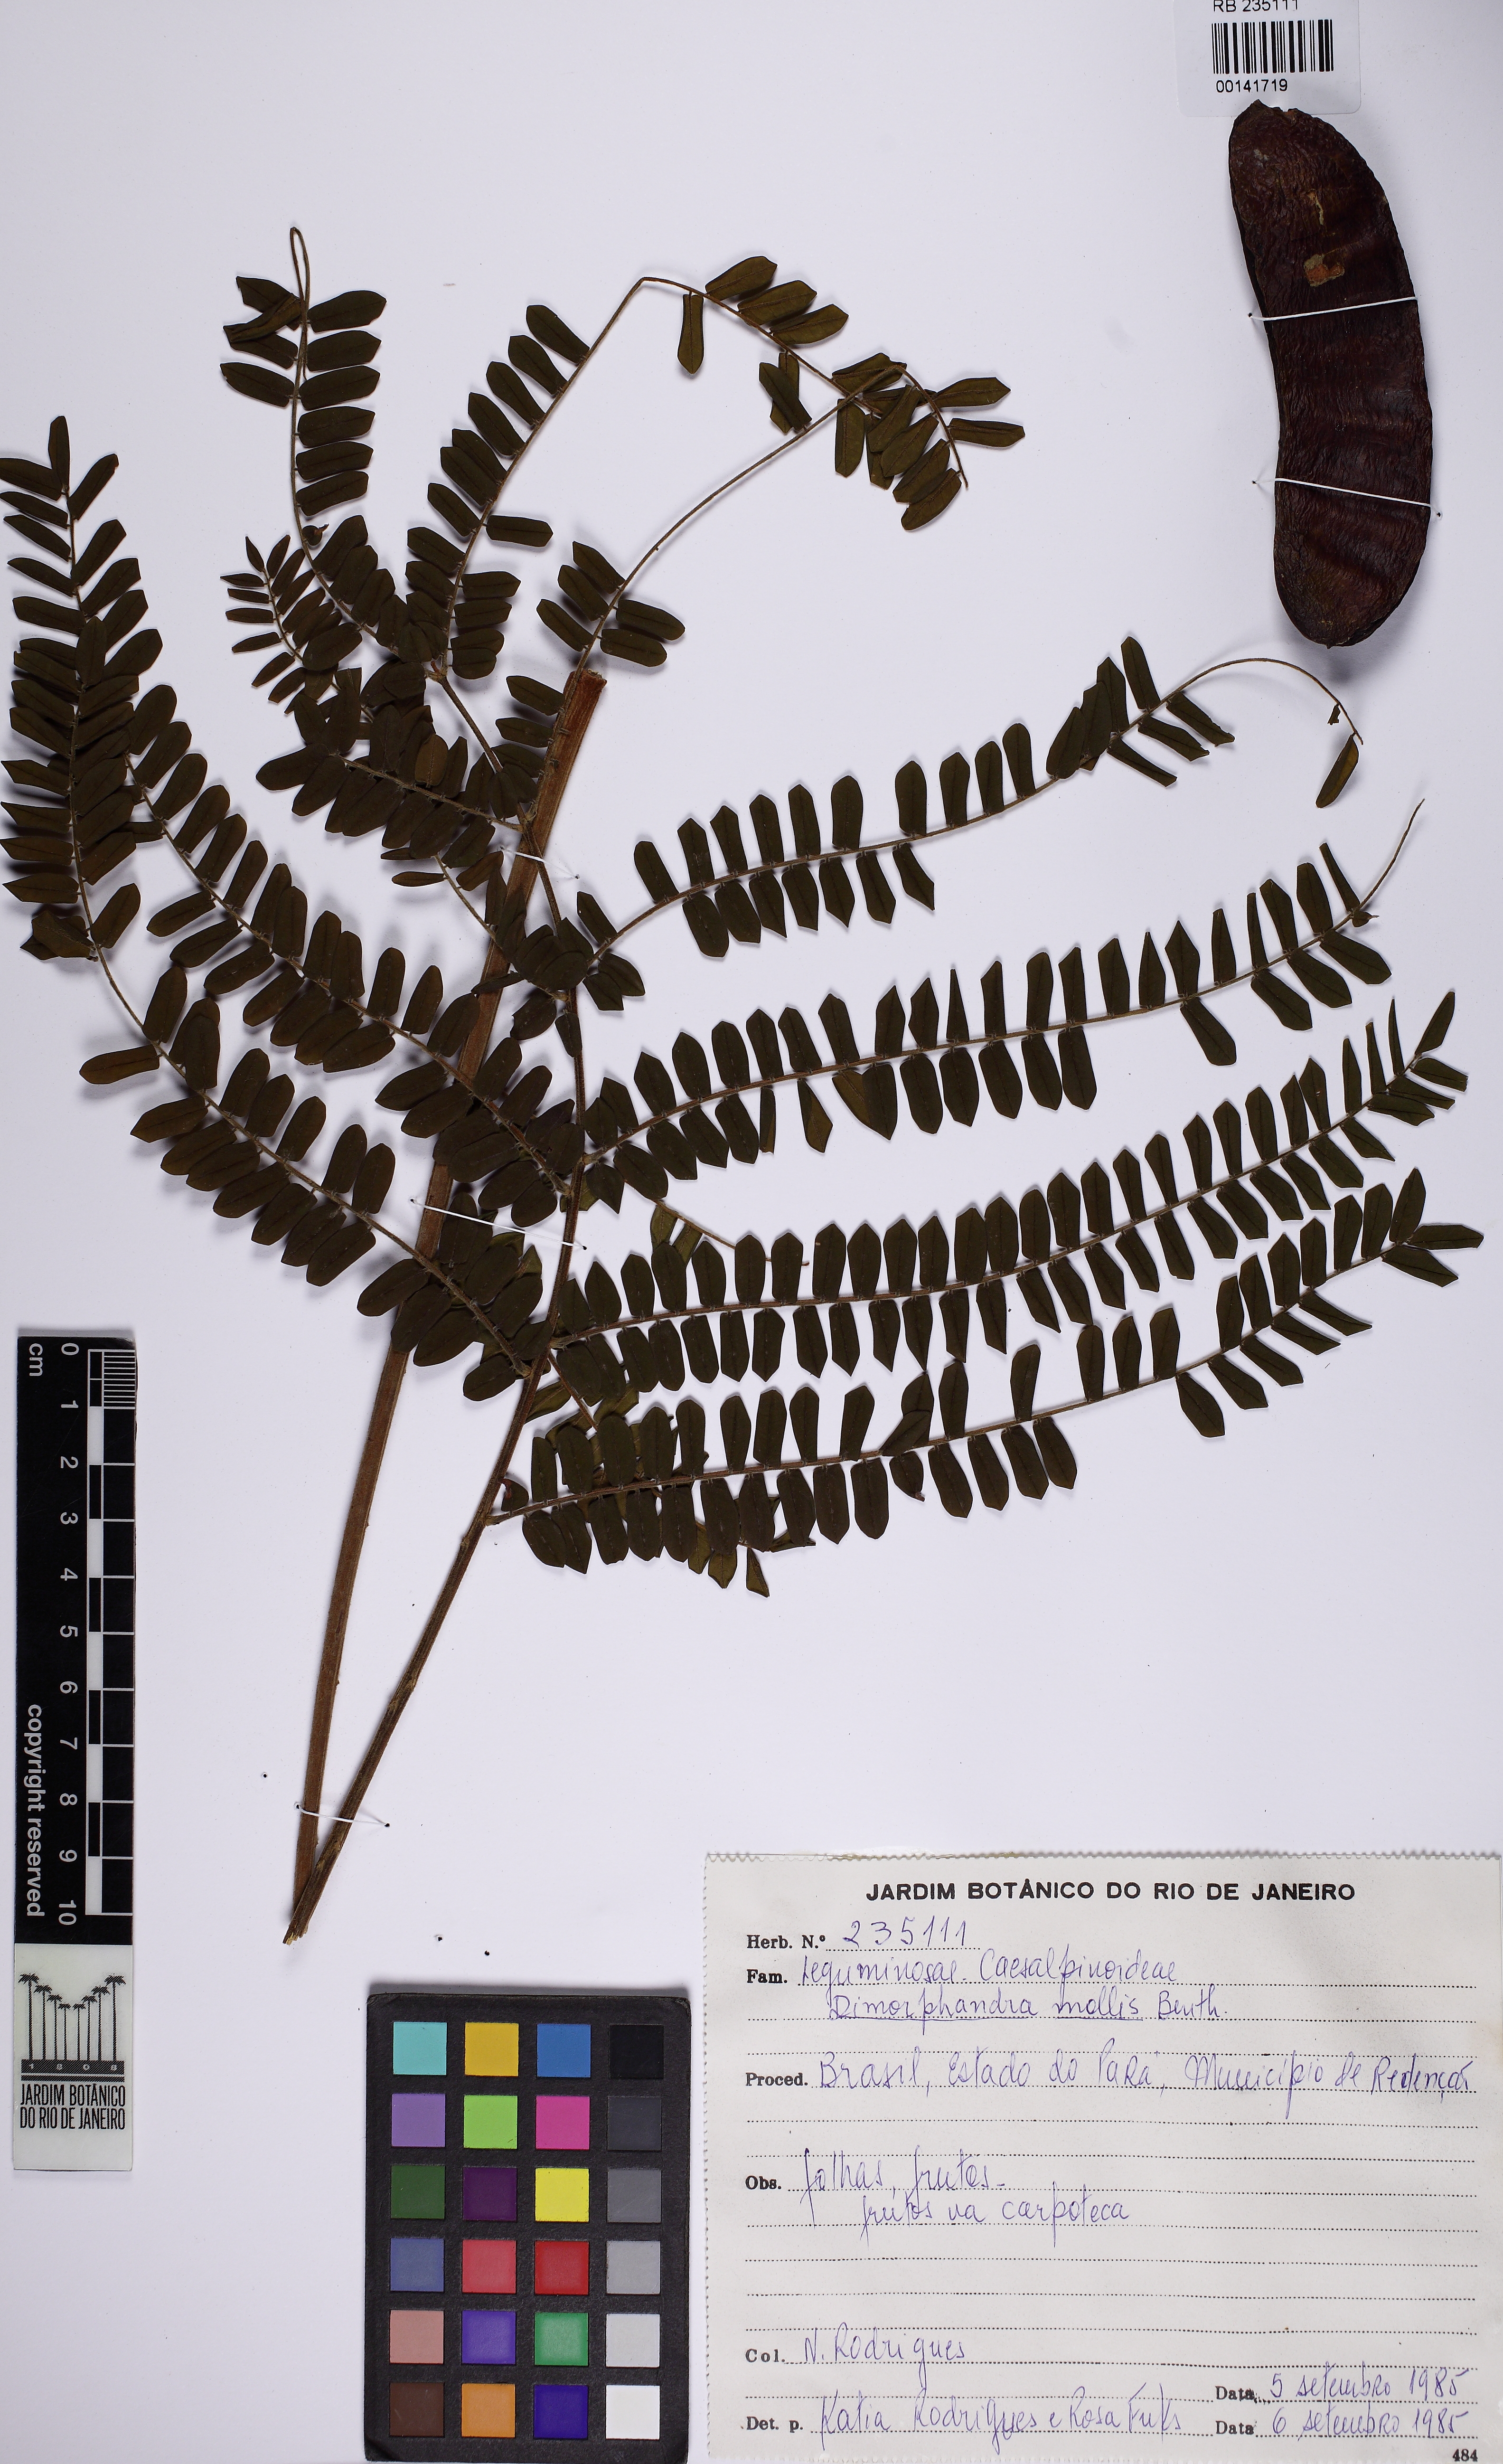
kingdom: Plantae
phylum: Tracheophyta
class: Magnoliopsida
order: Fabales
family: Fabaceae
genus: Dimorphandra
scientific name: Dimorphandra mollis
